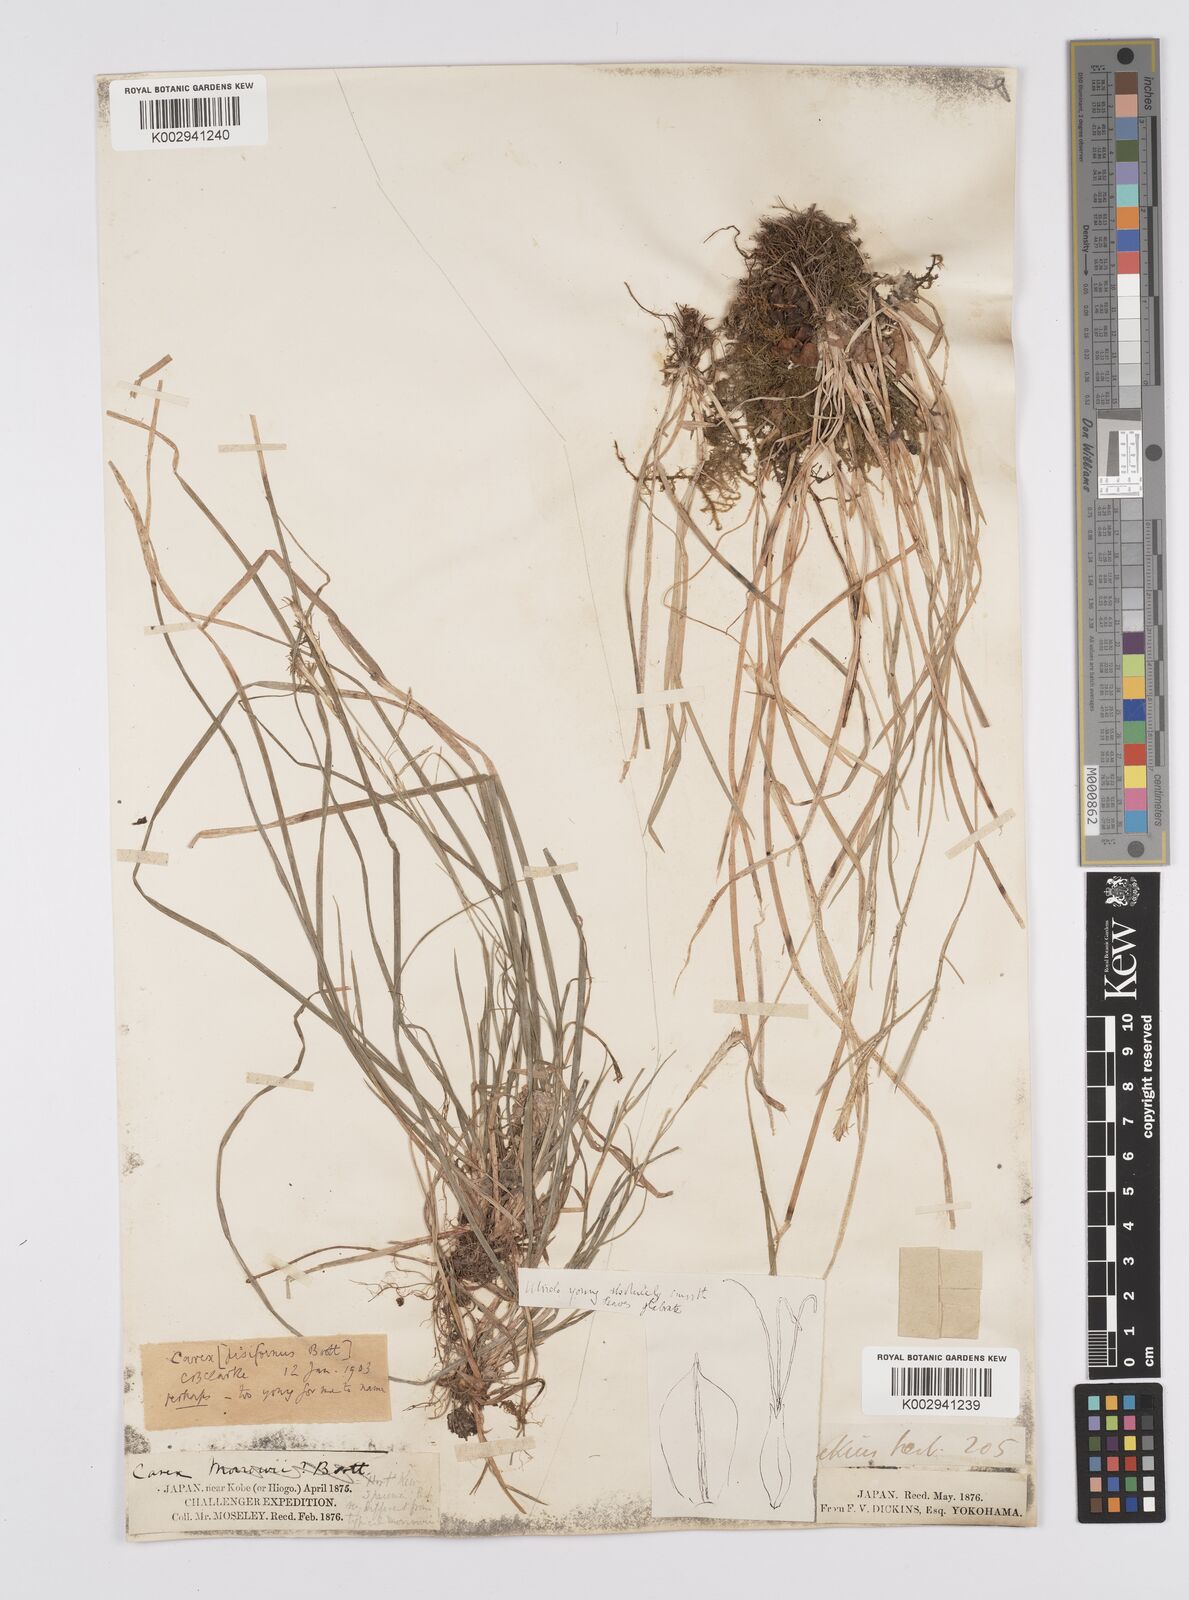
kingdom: Plantae
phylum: Tracheophyta
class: Liliopsida
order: Poales
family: Cyperaceae
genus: Carex
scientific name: Carex pisiformis
